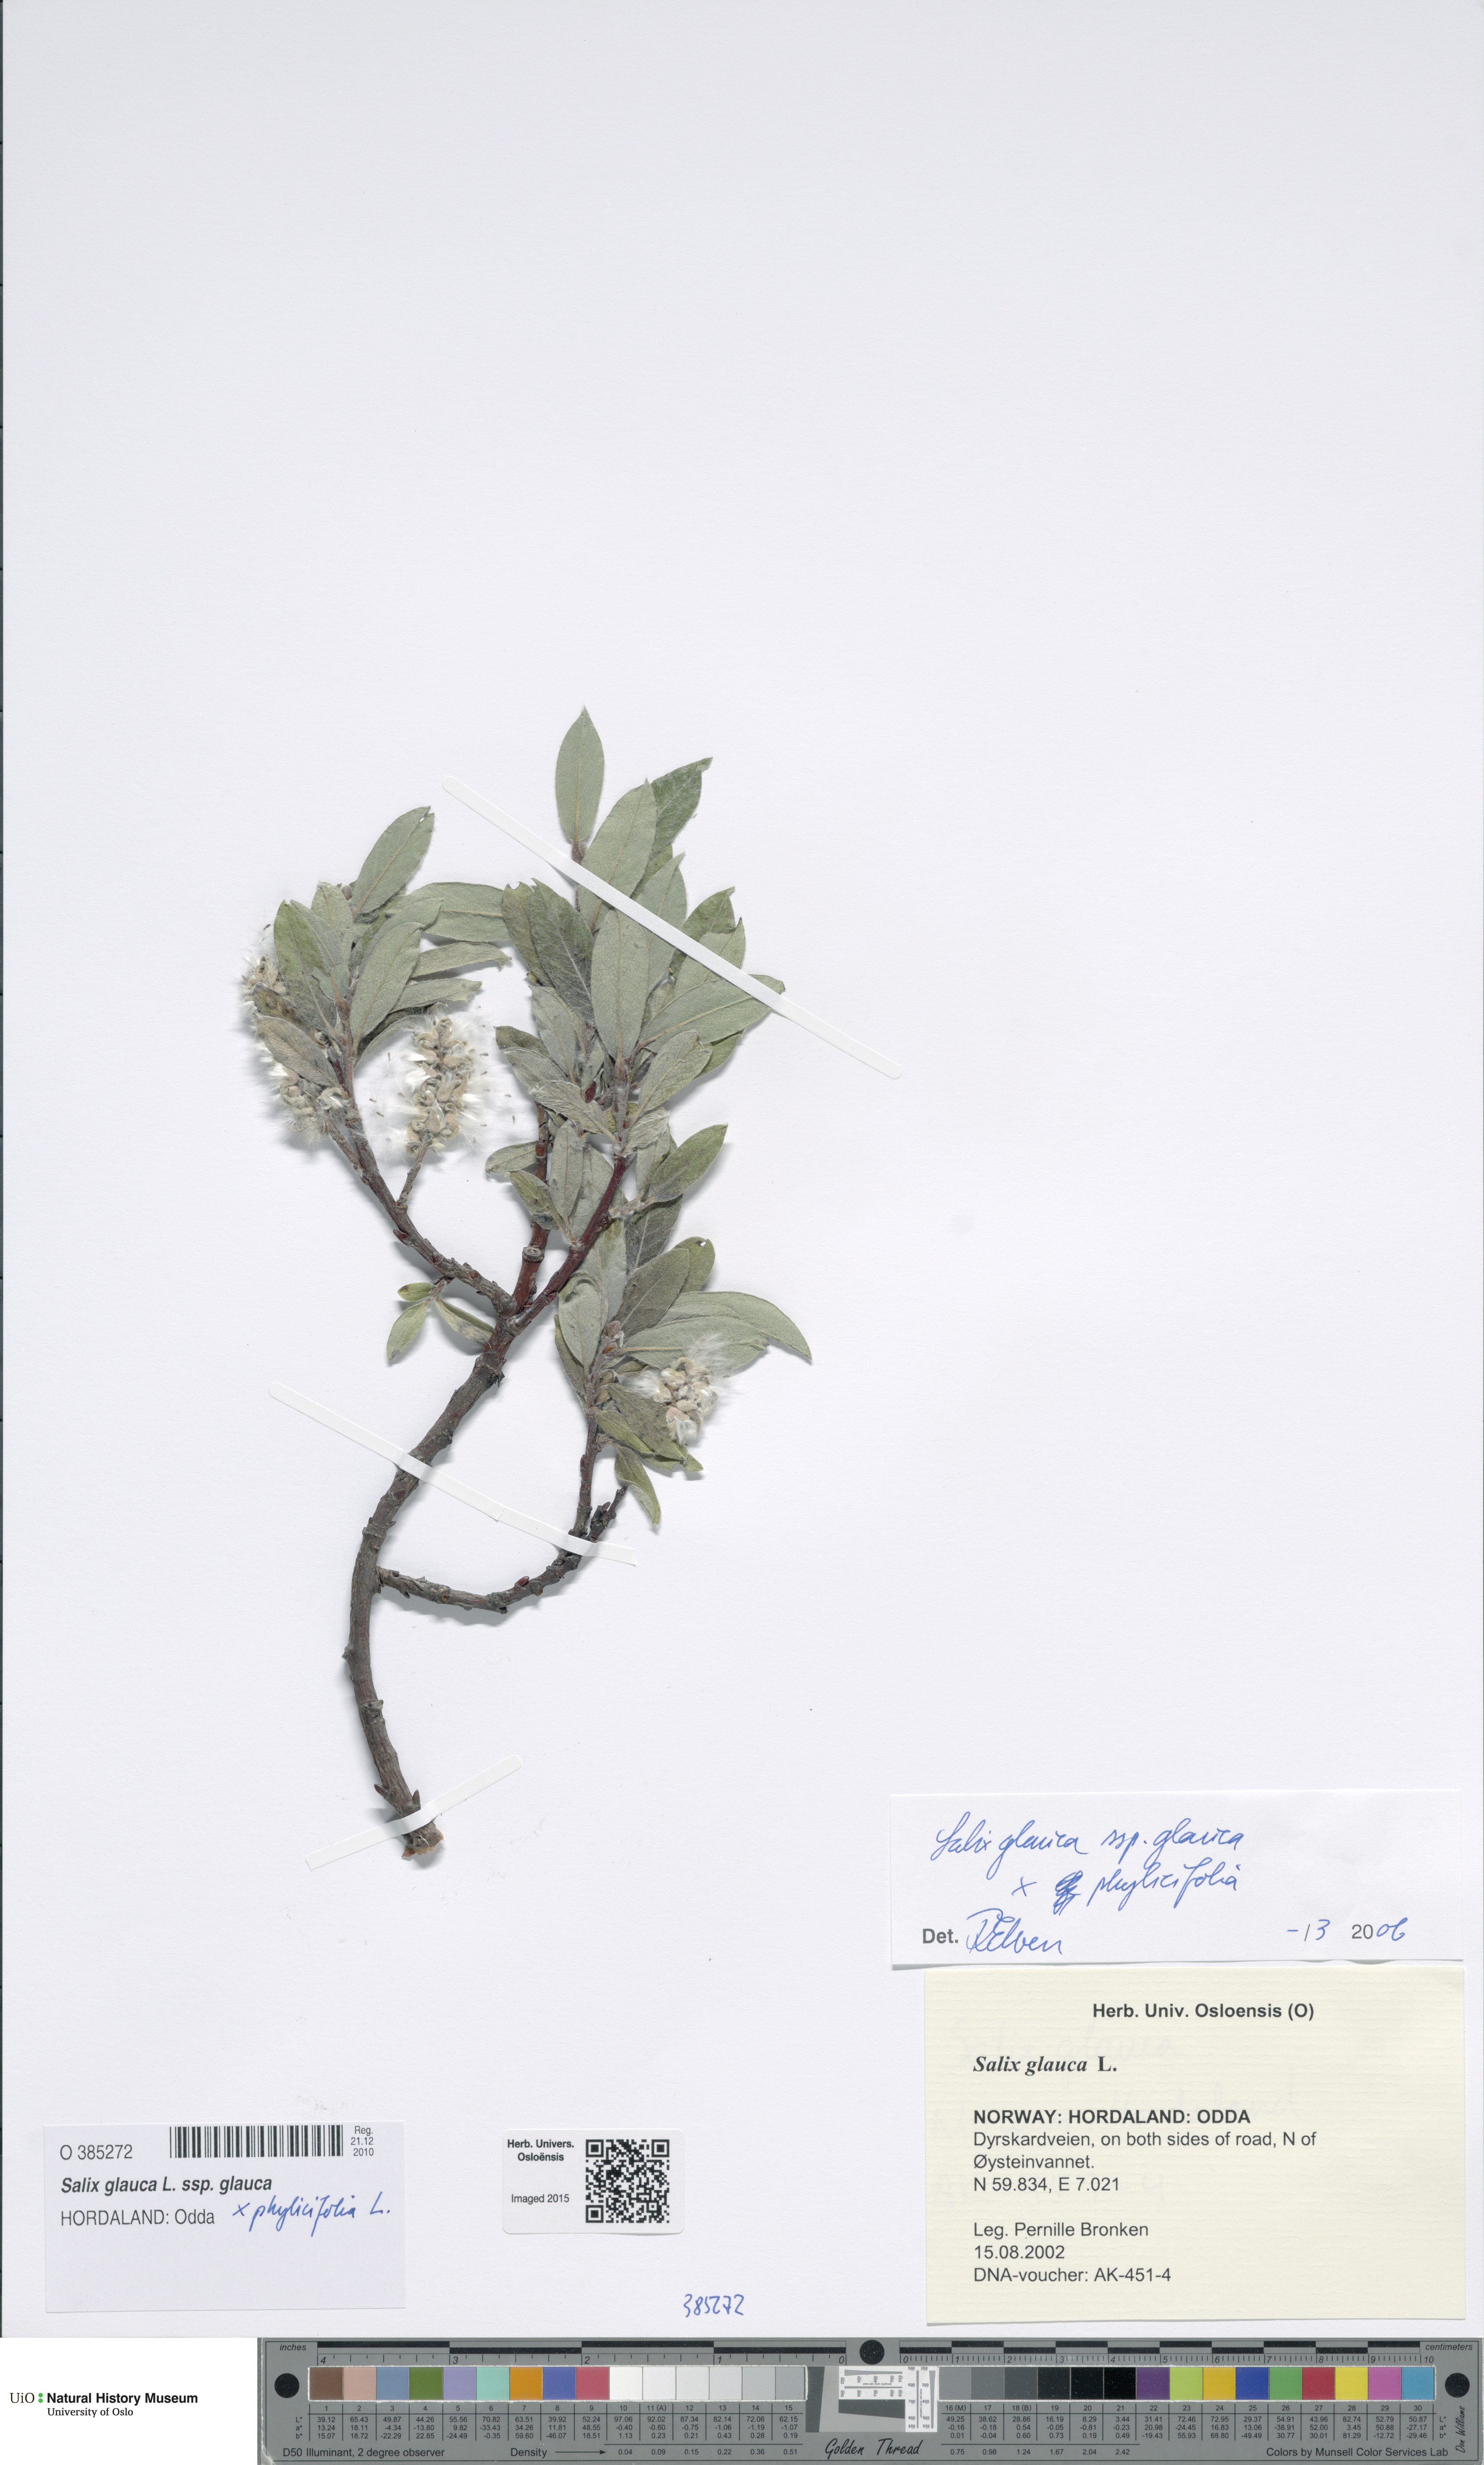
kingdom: Plantae
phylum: Tracheophyta
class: Magnoliopsida
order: Malpighiales
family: Salicaceae
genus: Salix
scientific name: Salix
